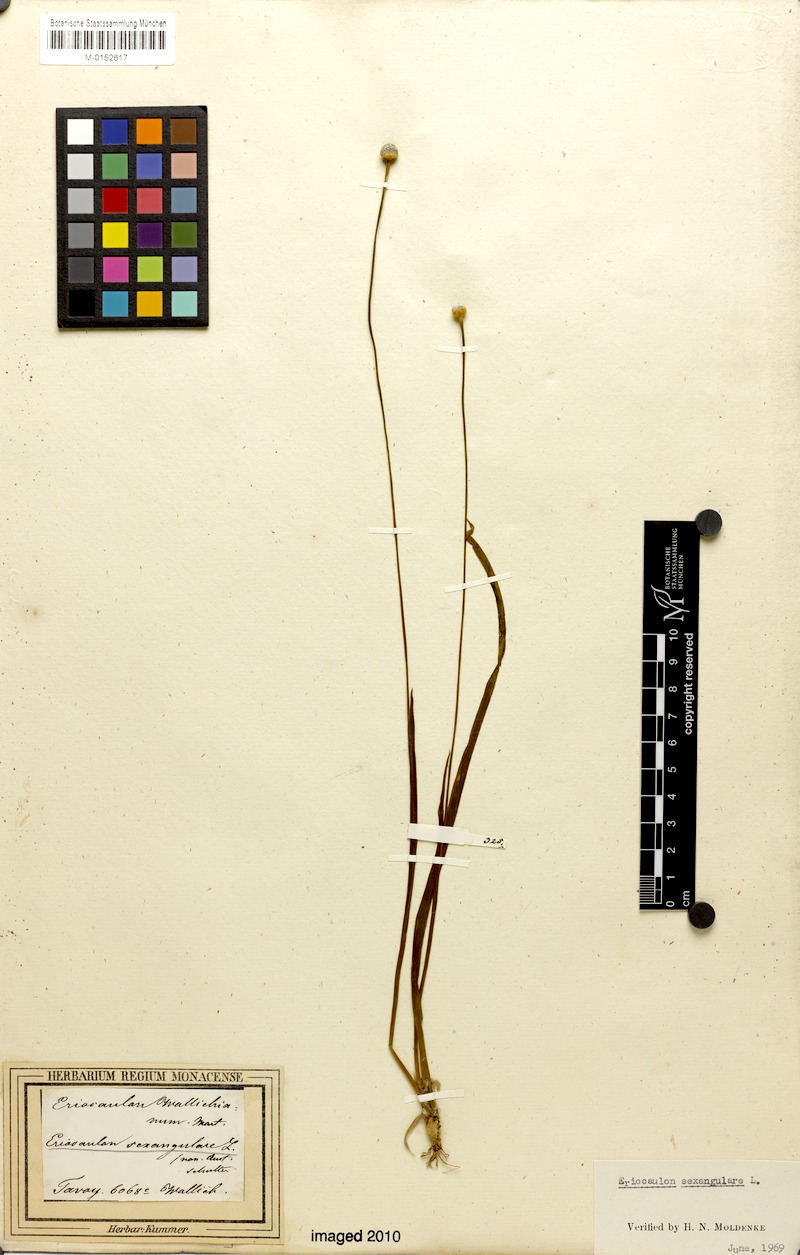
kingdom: Plantae
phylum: Tracheophyta
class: Liliopsida
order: Poales
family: Eriocaulaceae
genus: Eriocaulon
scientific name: Eriocaulon sexangulare
